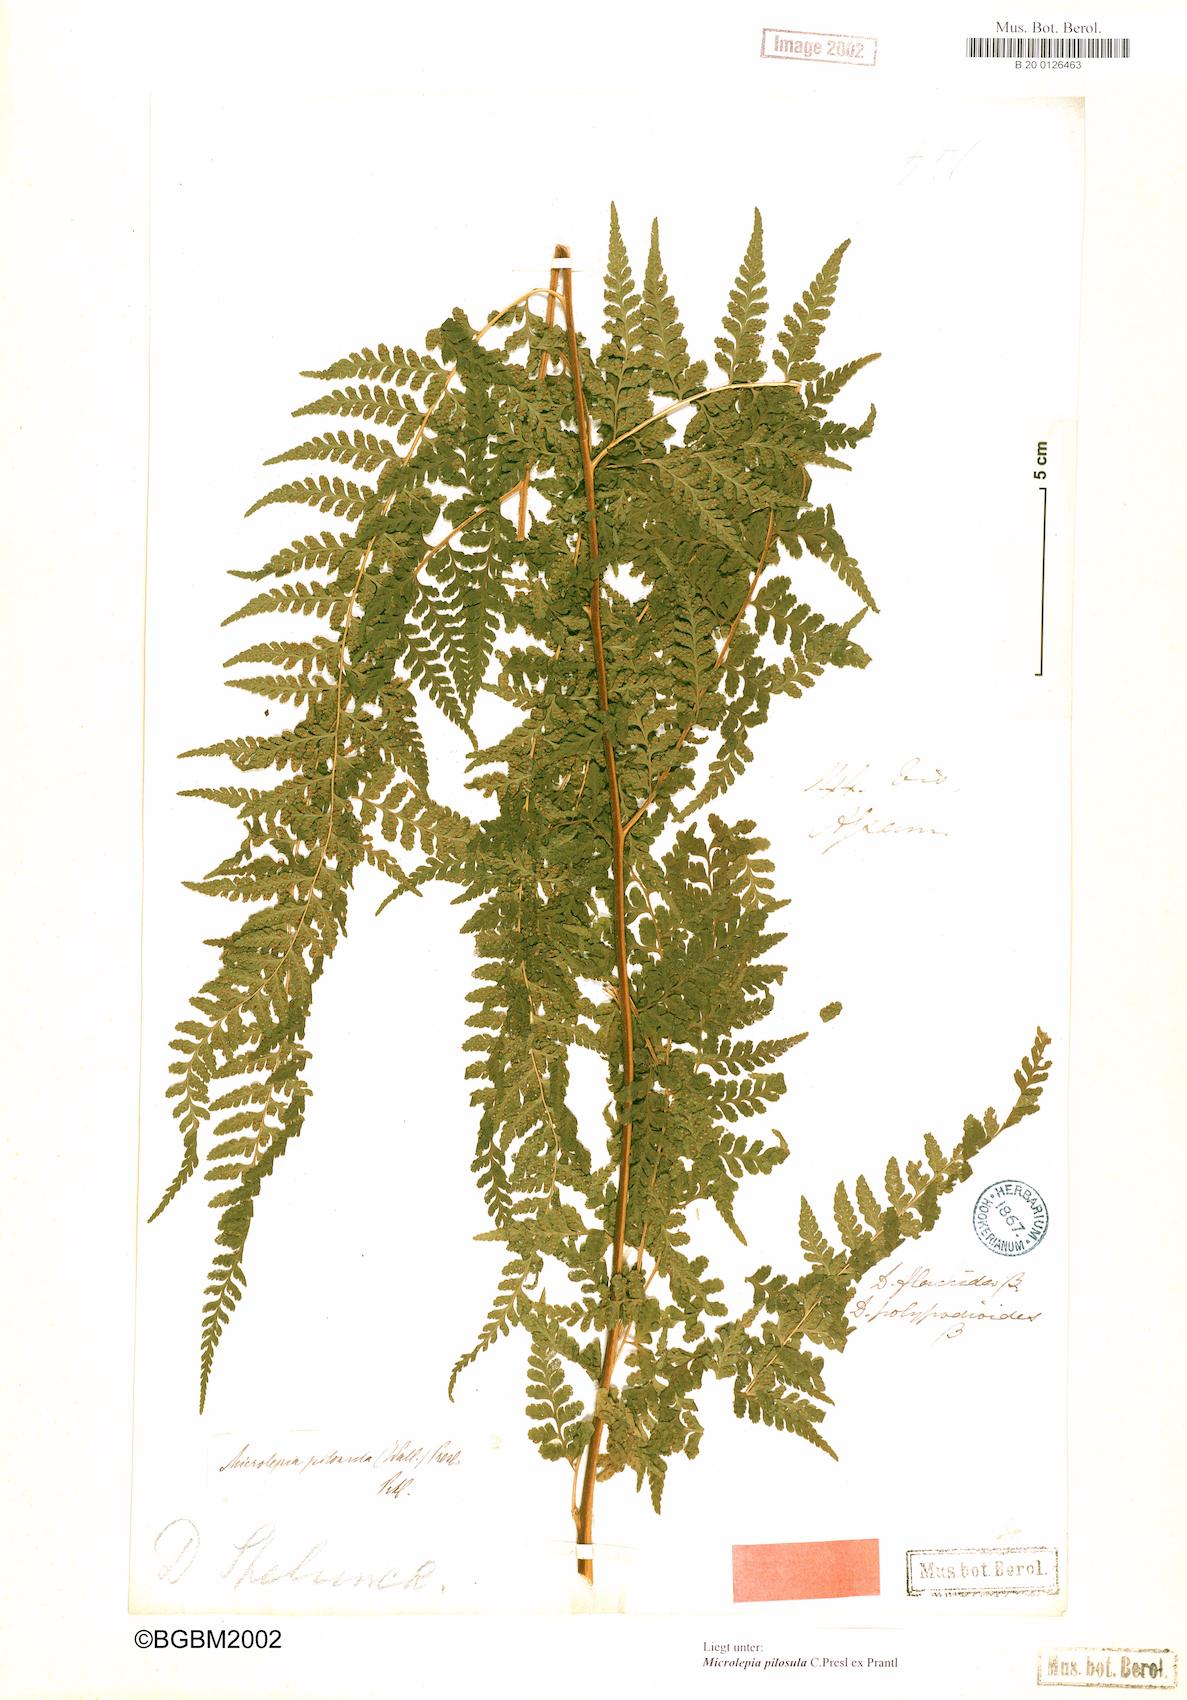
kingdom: Plantae
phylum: Tracheophyta
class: Polypodiopsida
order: Polypodiales
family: Dennstaedtiaceae
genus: Microlepia
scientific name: Microlepia speluncae
